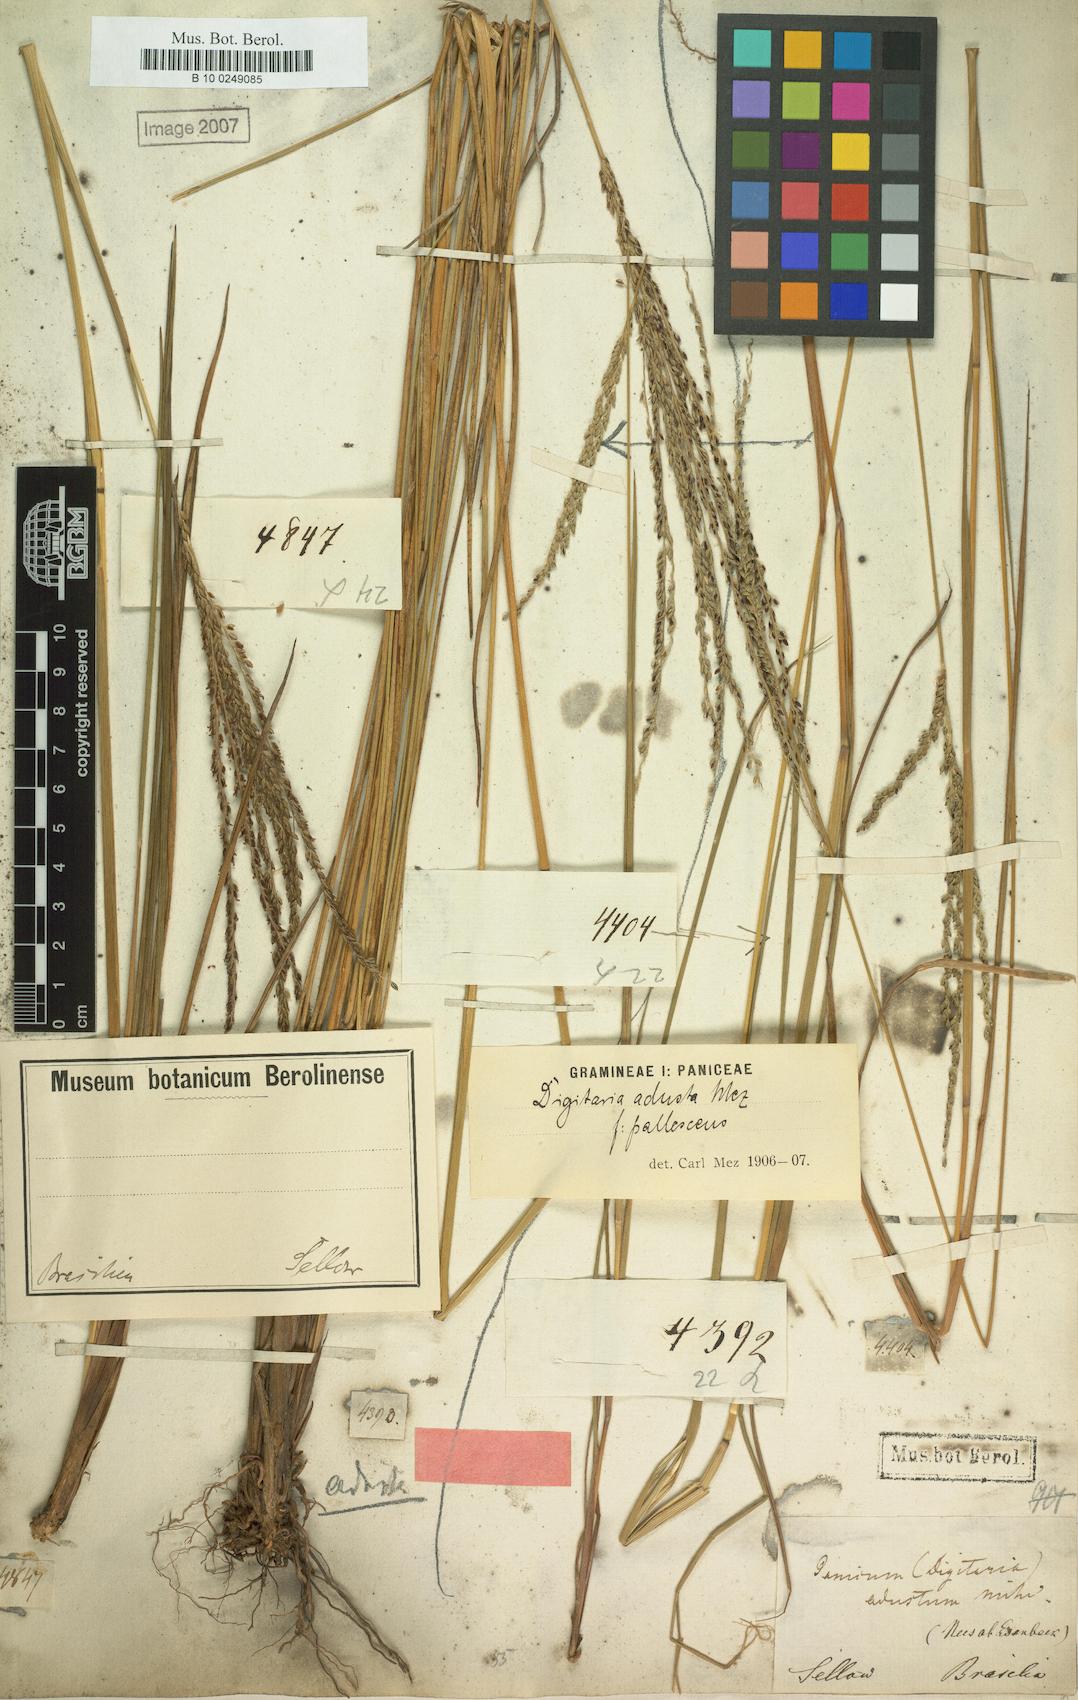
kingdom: Plantae
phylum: Tracheophyta
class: Liliopsida
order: Poales
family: Poaceae
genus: Digitaria
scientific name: Digitaria phaeothrix
